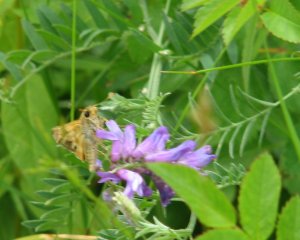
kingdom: Animalia
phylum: Arthropoda
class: Insecta
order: Lepidoptera
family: Hesperiidae
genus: Polites
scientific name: Polites coras
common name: Peck's Skipper
